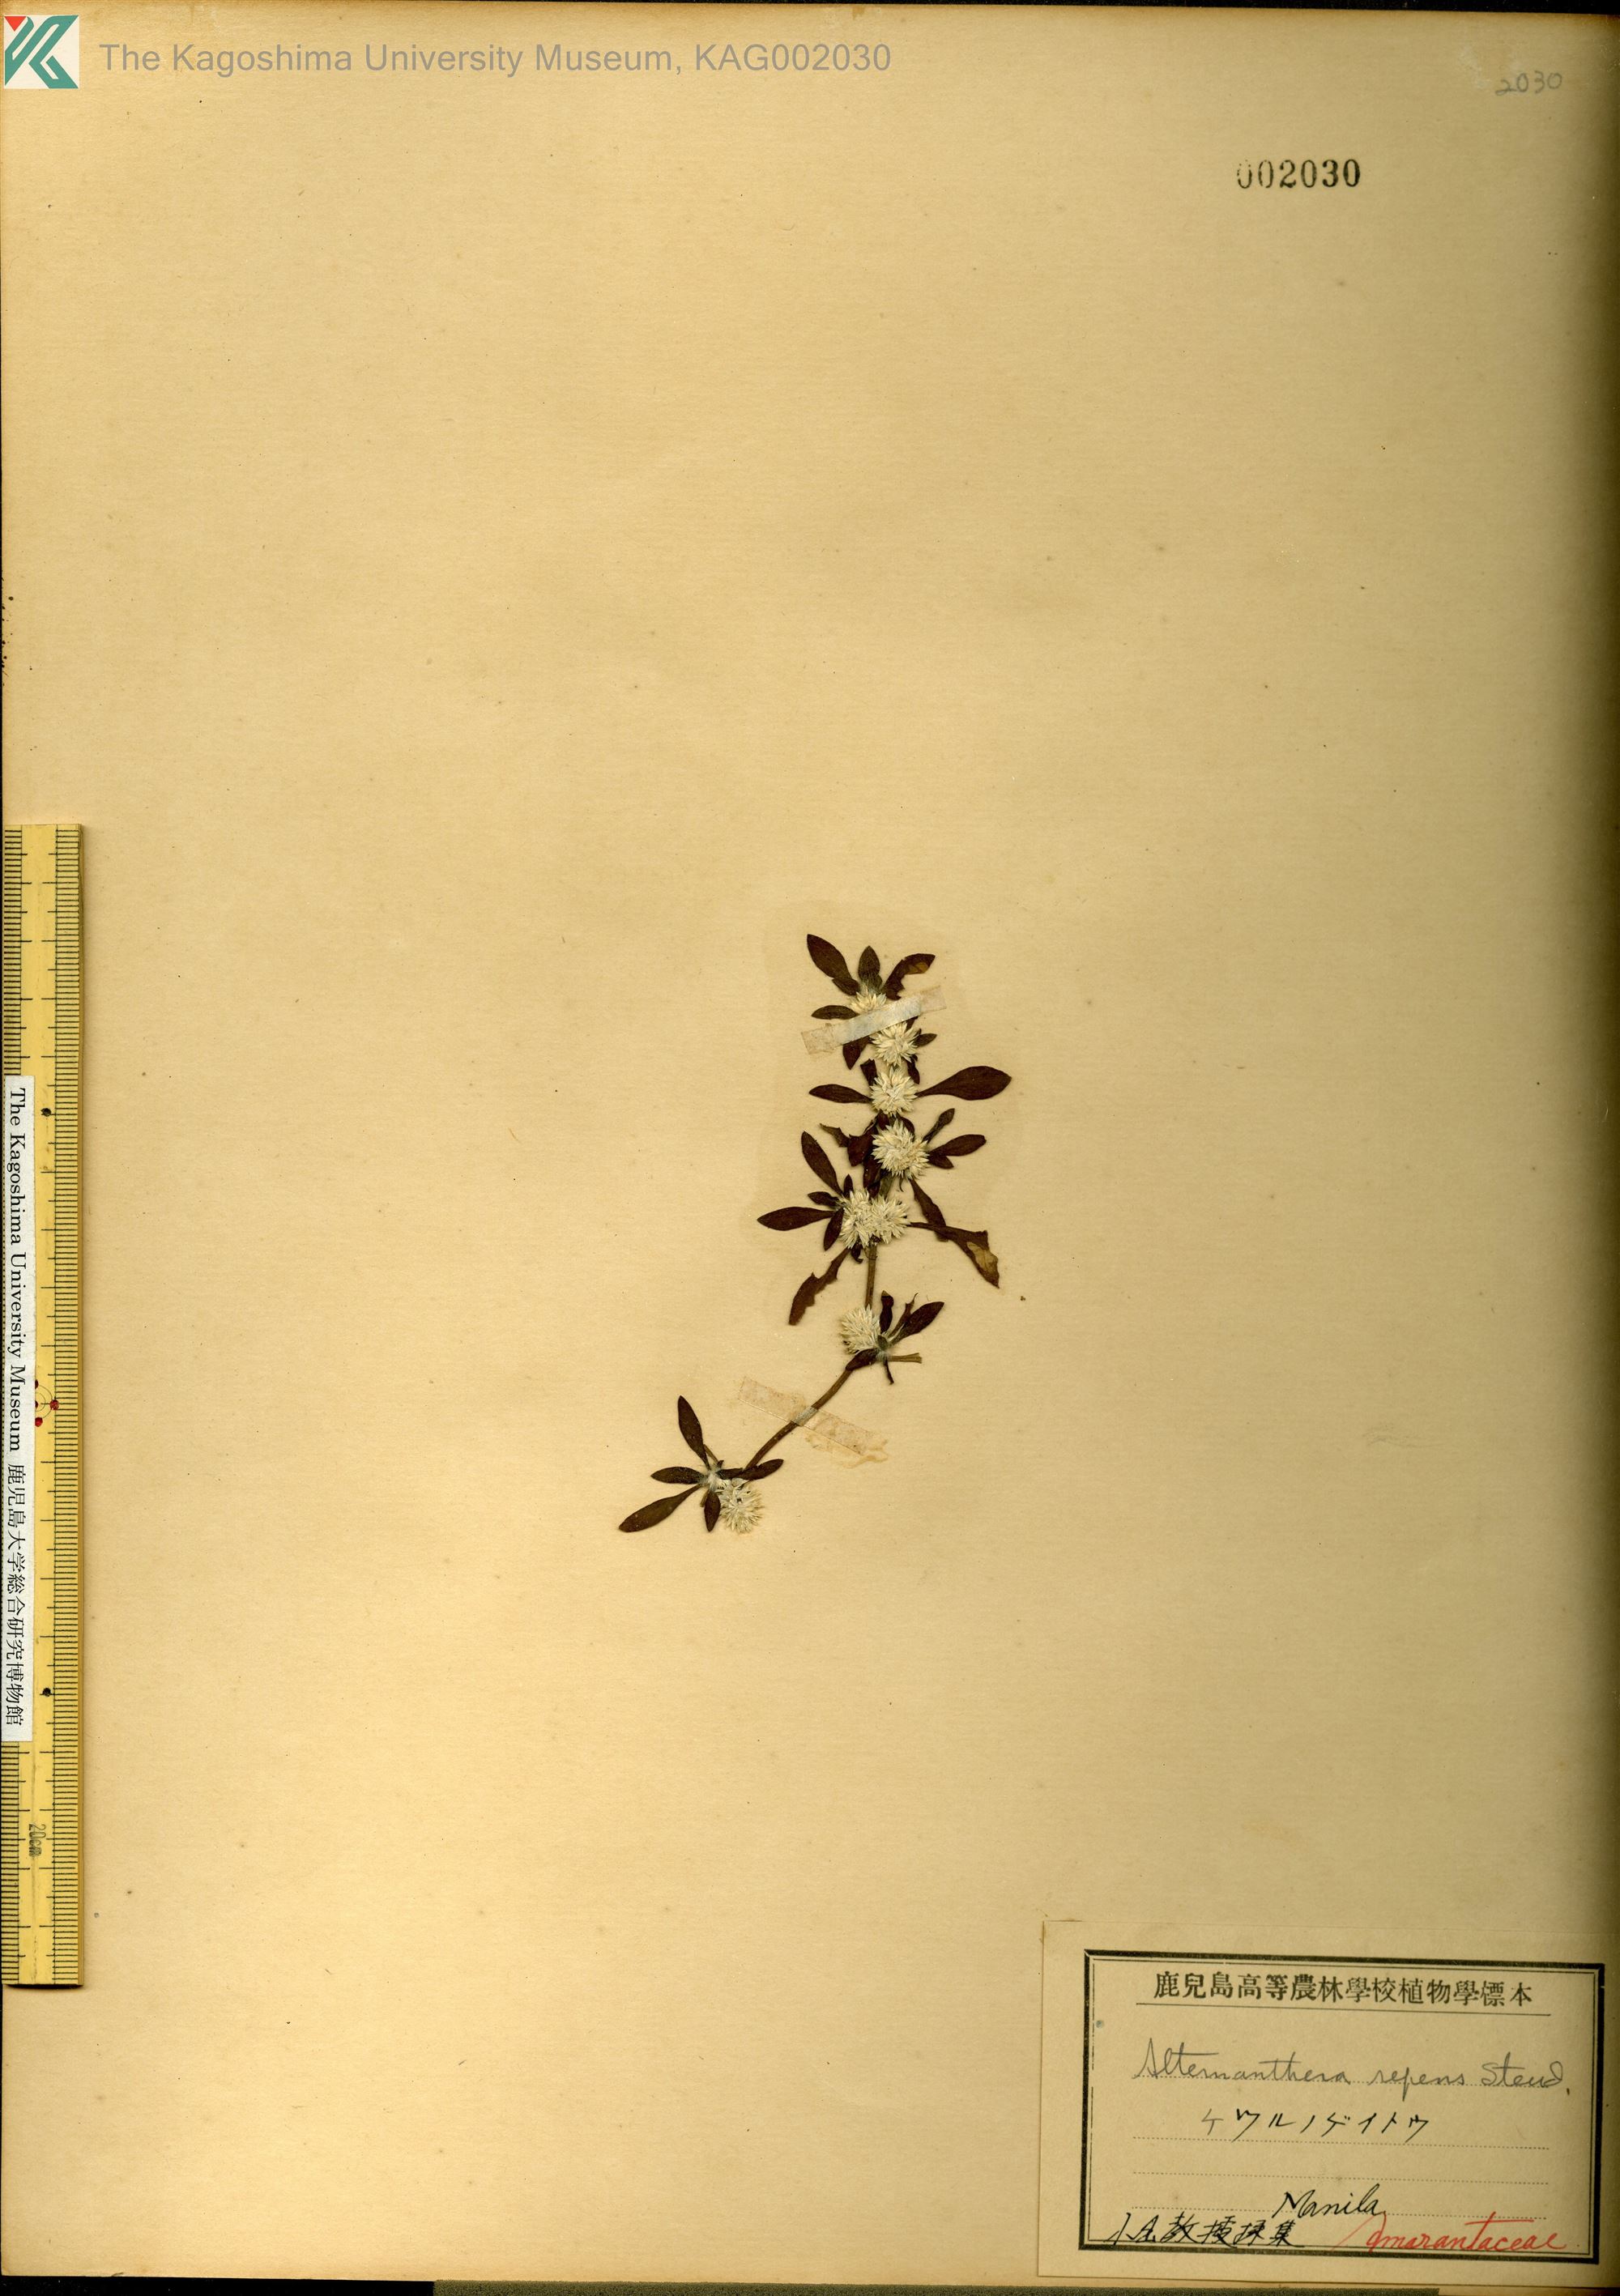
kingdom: Plantae
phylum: Tracheophyta
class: Magnoliopsida
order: Caryophyllales
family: Amaranthaceae
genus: Alternanthera
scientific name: Alternanthera pungens
